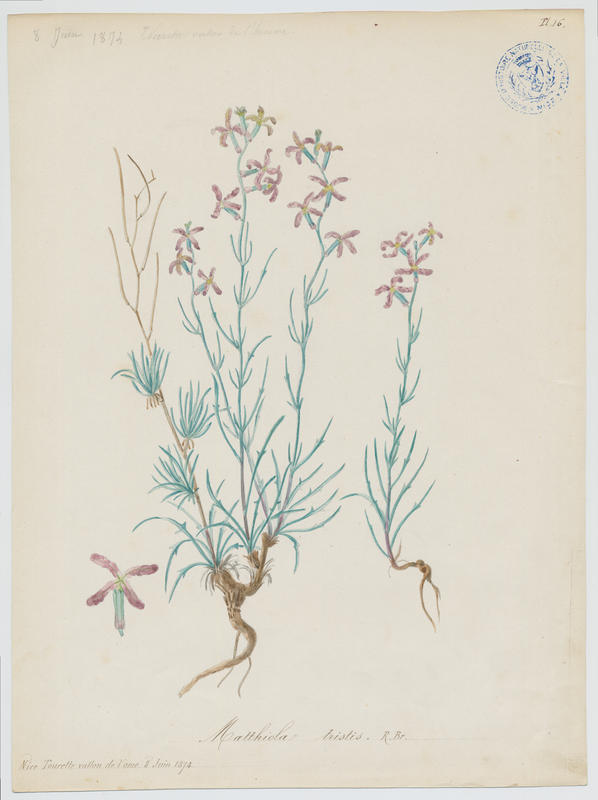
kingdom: Plantae
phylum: Tracheophyta
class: Magnoliopsida
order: Brassicales
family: Brassicaceae
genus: Matthiola
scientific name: Matthiola fruticulosa
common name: Sad stock
